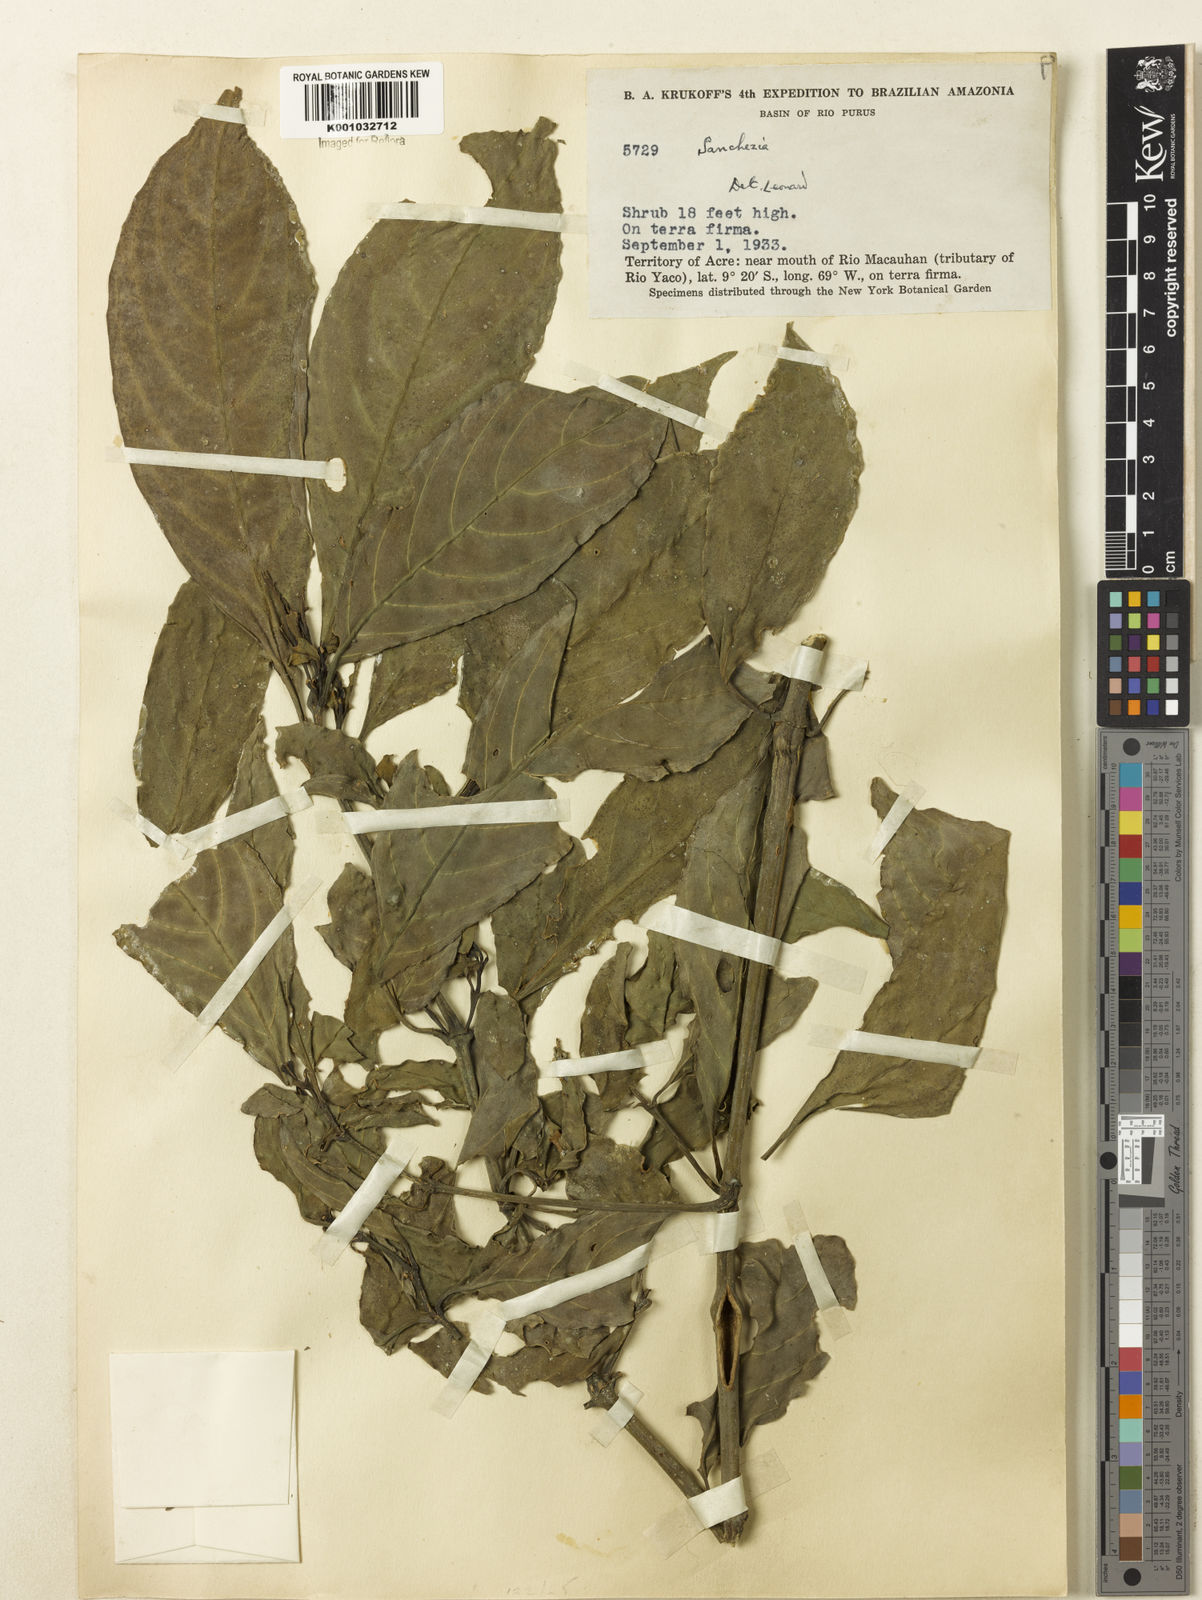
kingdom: Plantae
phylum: Tracheophyta
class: Magnoliopsida
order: Lamiales
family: Acanthaceae
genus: Sanchezia
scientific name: Sanchezia
